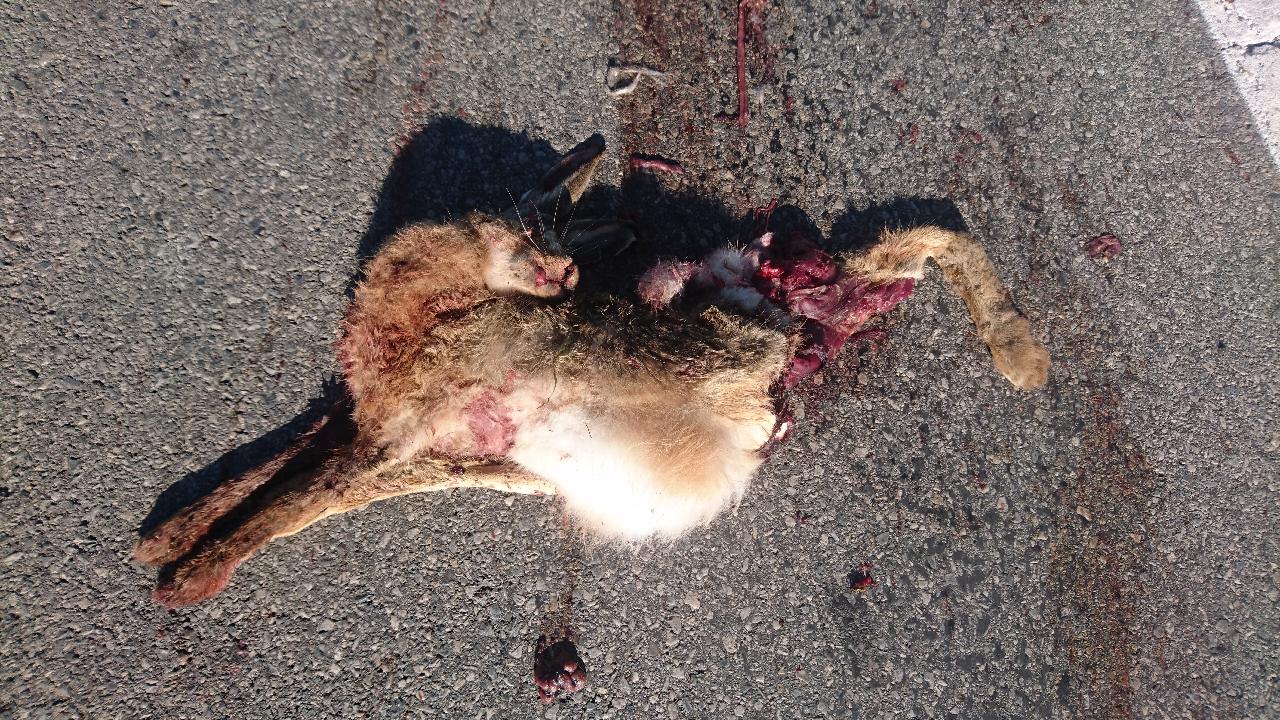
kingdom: Animalia
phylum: Chordata
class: Mammalia
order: Lagomorpha
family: Leporidae
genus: Lepus
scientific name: Lepus europaeus
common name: European hare
